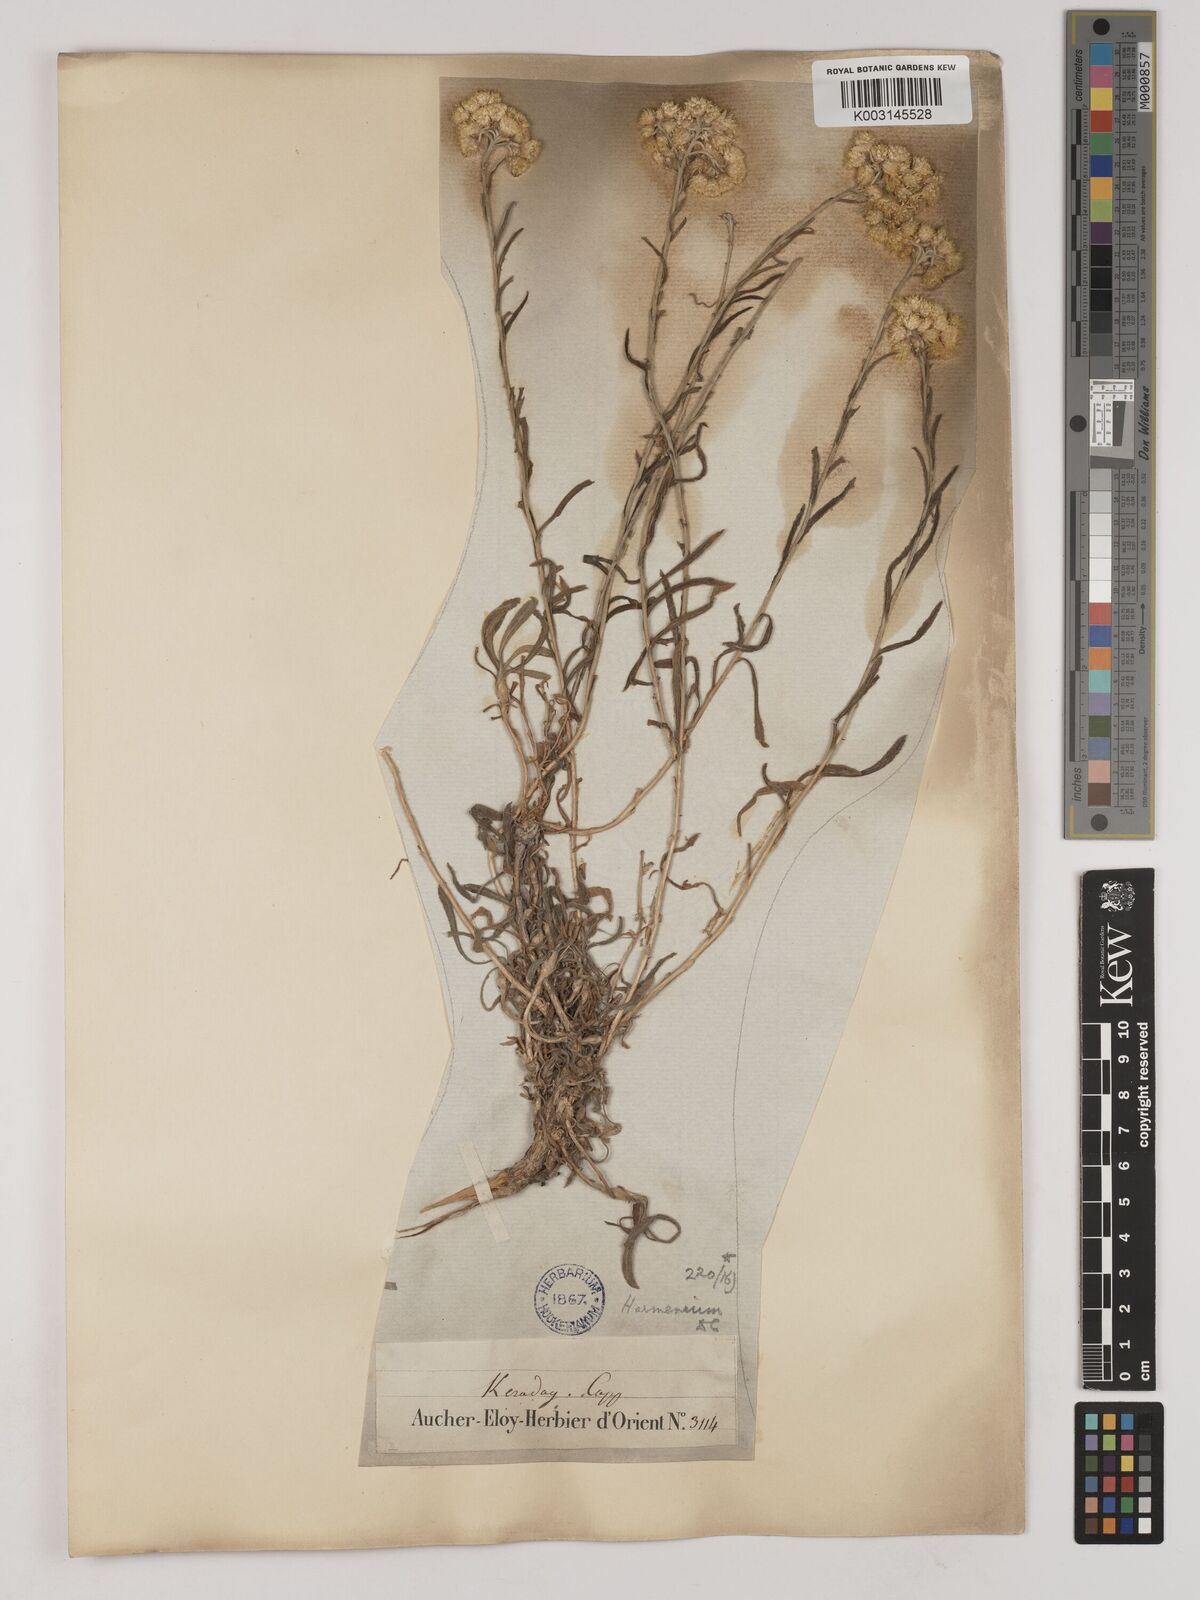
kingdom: Plantae
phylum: Tracheophyta
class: Magnoliopsida
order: Asterales
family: Asteraceae
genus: Helichrysum
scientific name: Helichrysum armenium
